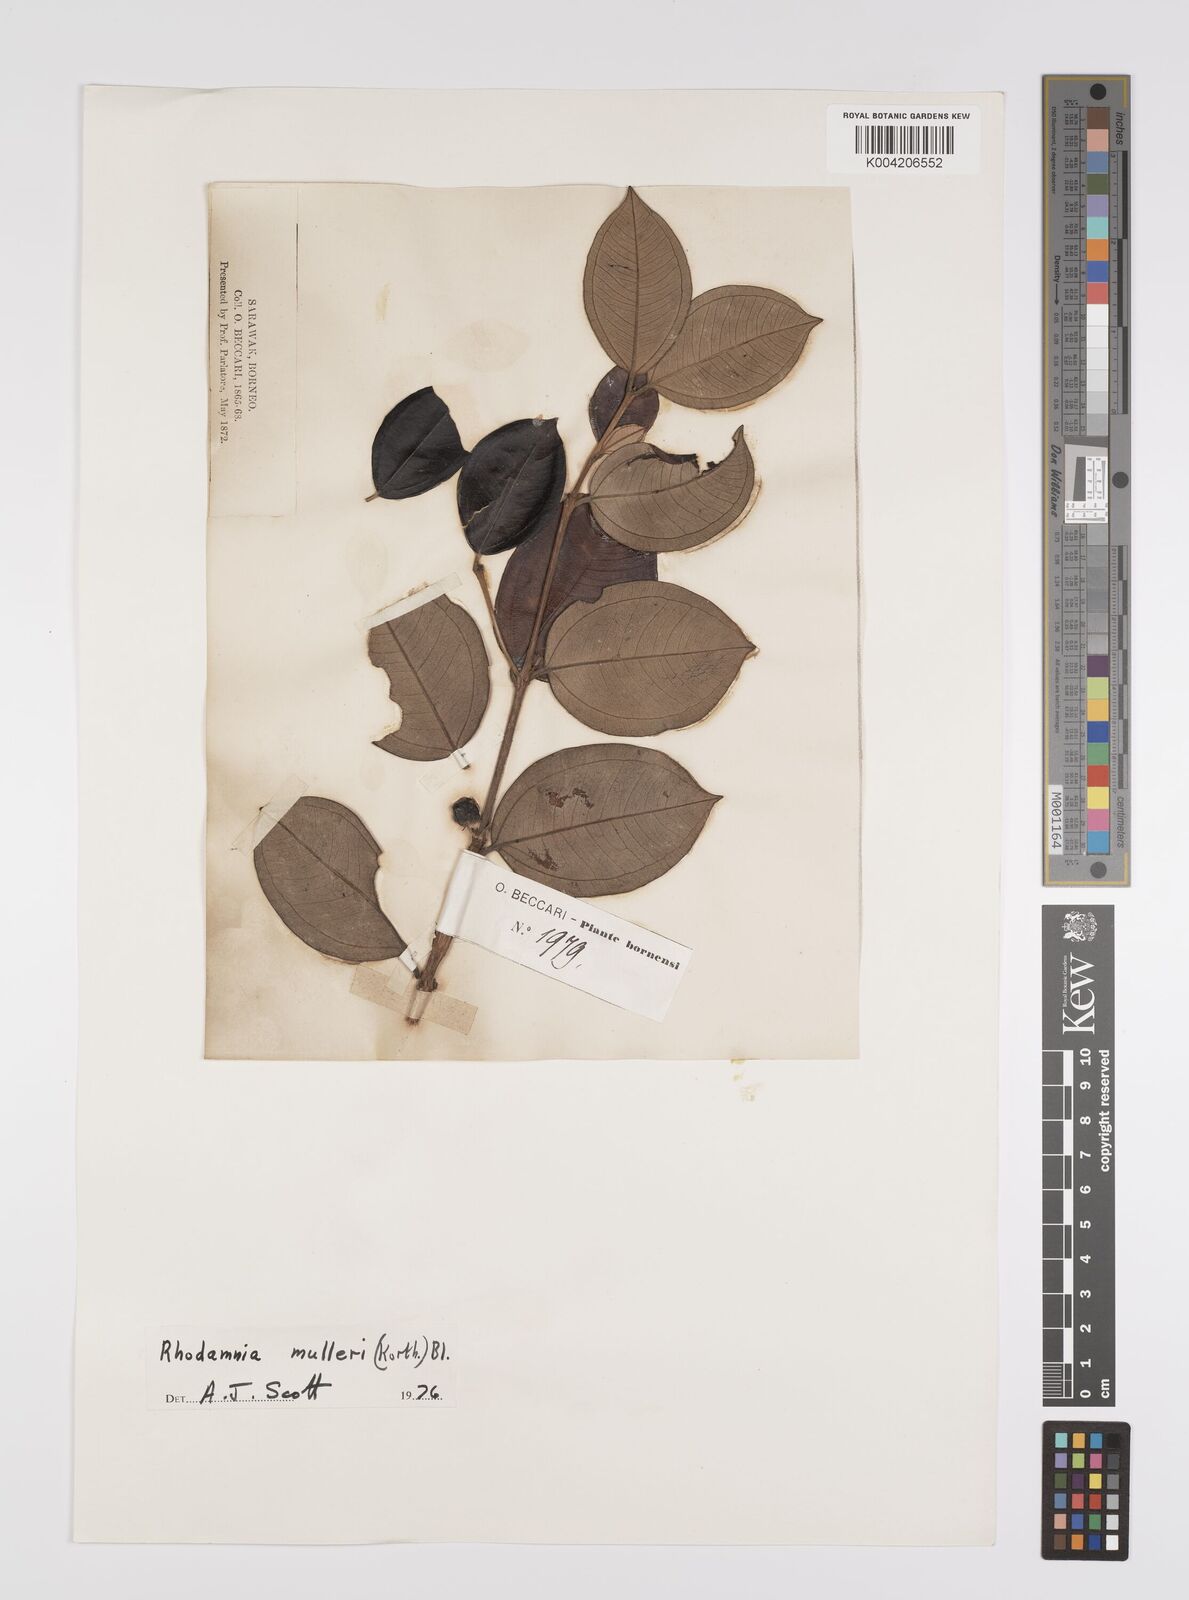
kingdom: Plantae
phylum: Tracheophyta
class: Magnoliopsida
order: Myrtales
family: Myrtaceae
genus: Rhodamnia
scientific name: Rhodamnia mulleri
